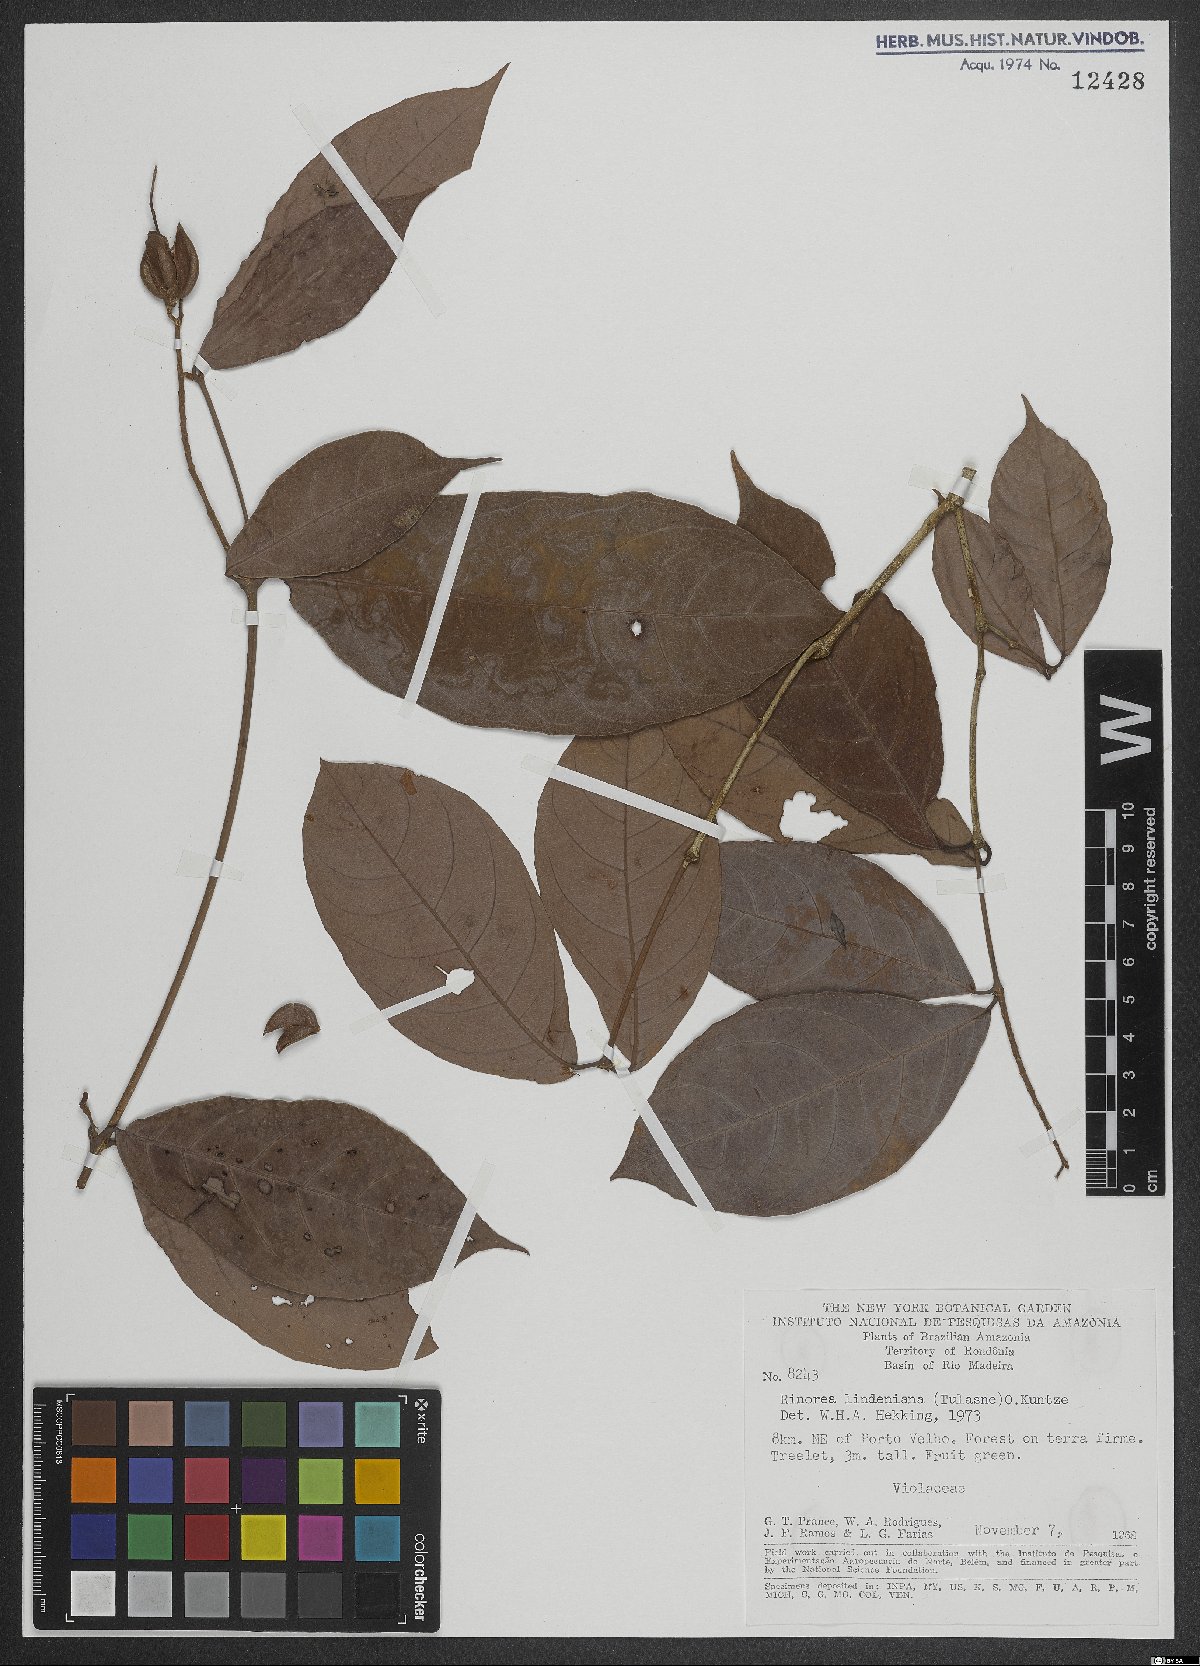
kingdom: Plantae
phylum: Tracheophyta
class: Magnoliopsida
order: Malpighiales
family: Violaceae
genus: Rinorea
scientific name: Rinorea lindeniana
